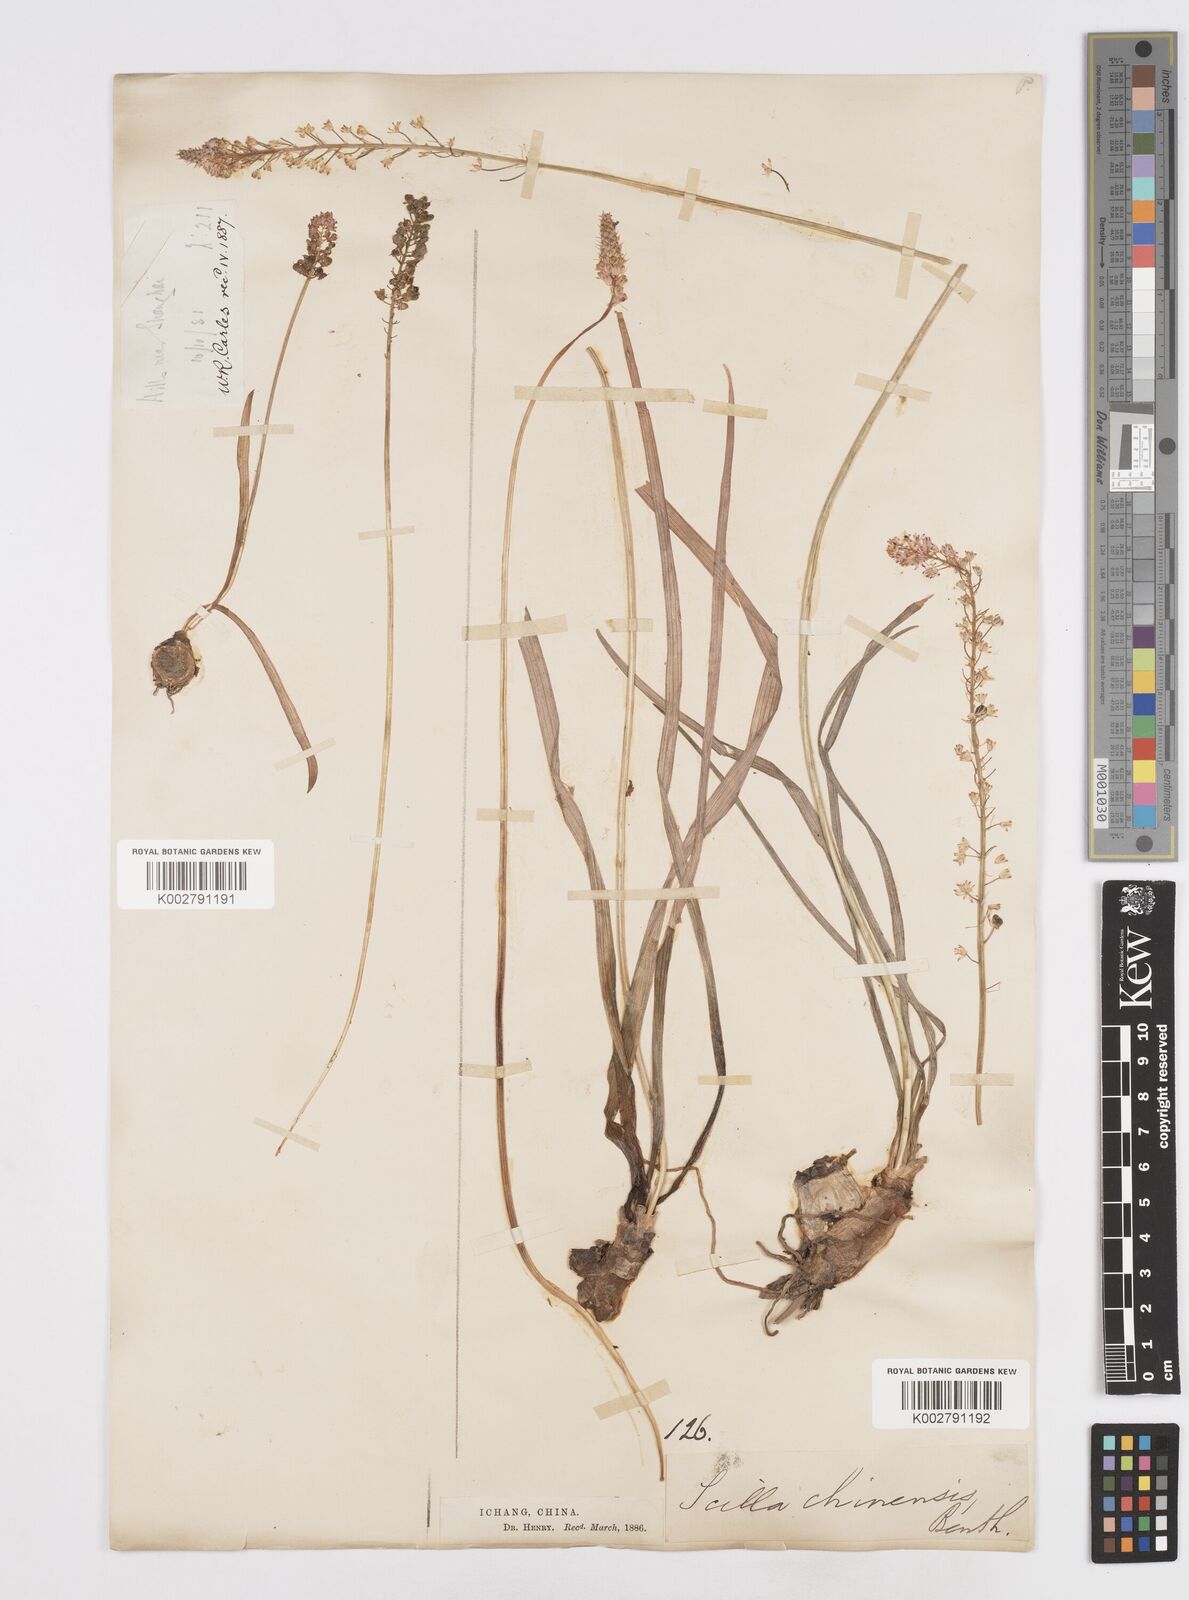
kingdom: Plantae
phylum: Tracheophyta
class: Liliopsida
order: Asparagales
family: Asparagaceae
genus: Barnardia
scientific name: Barnardia japonica
